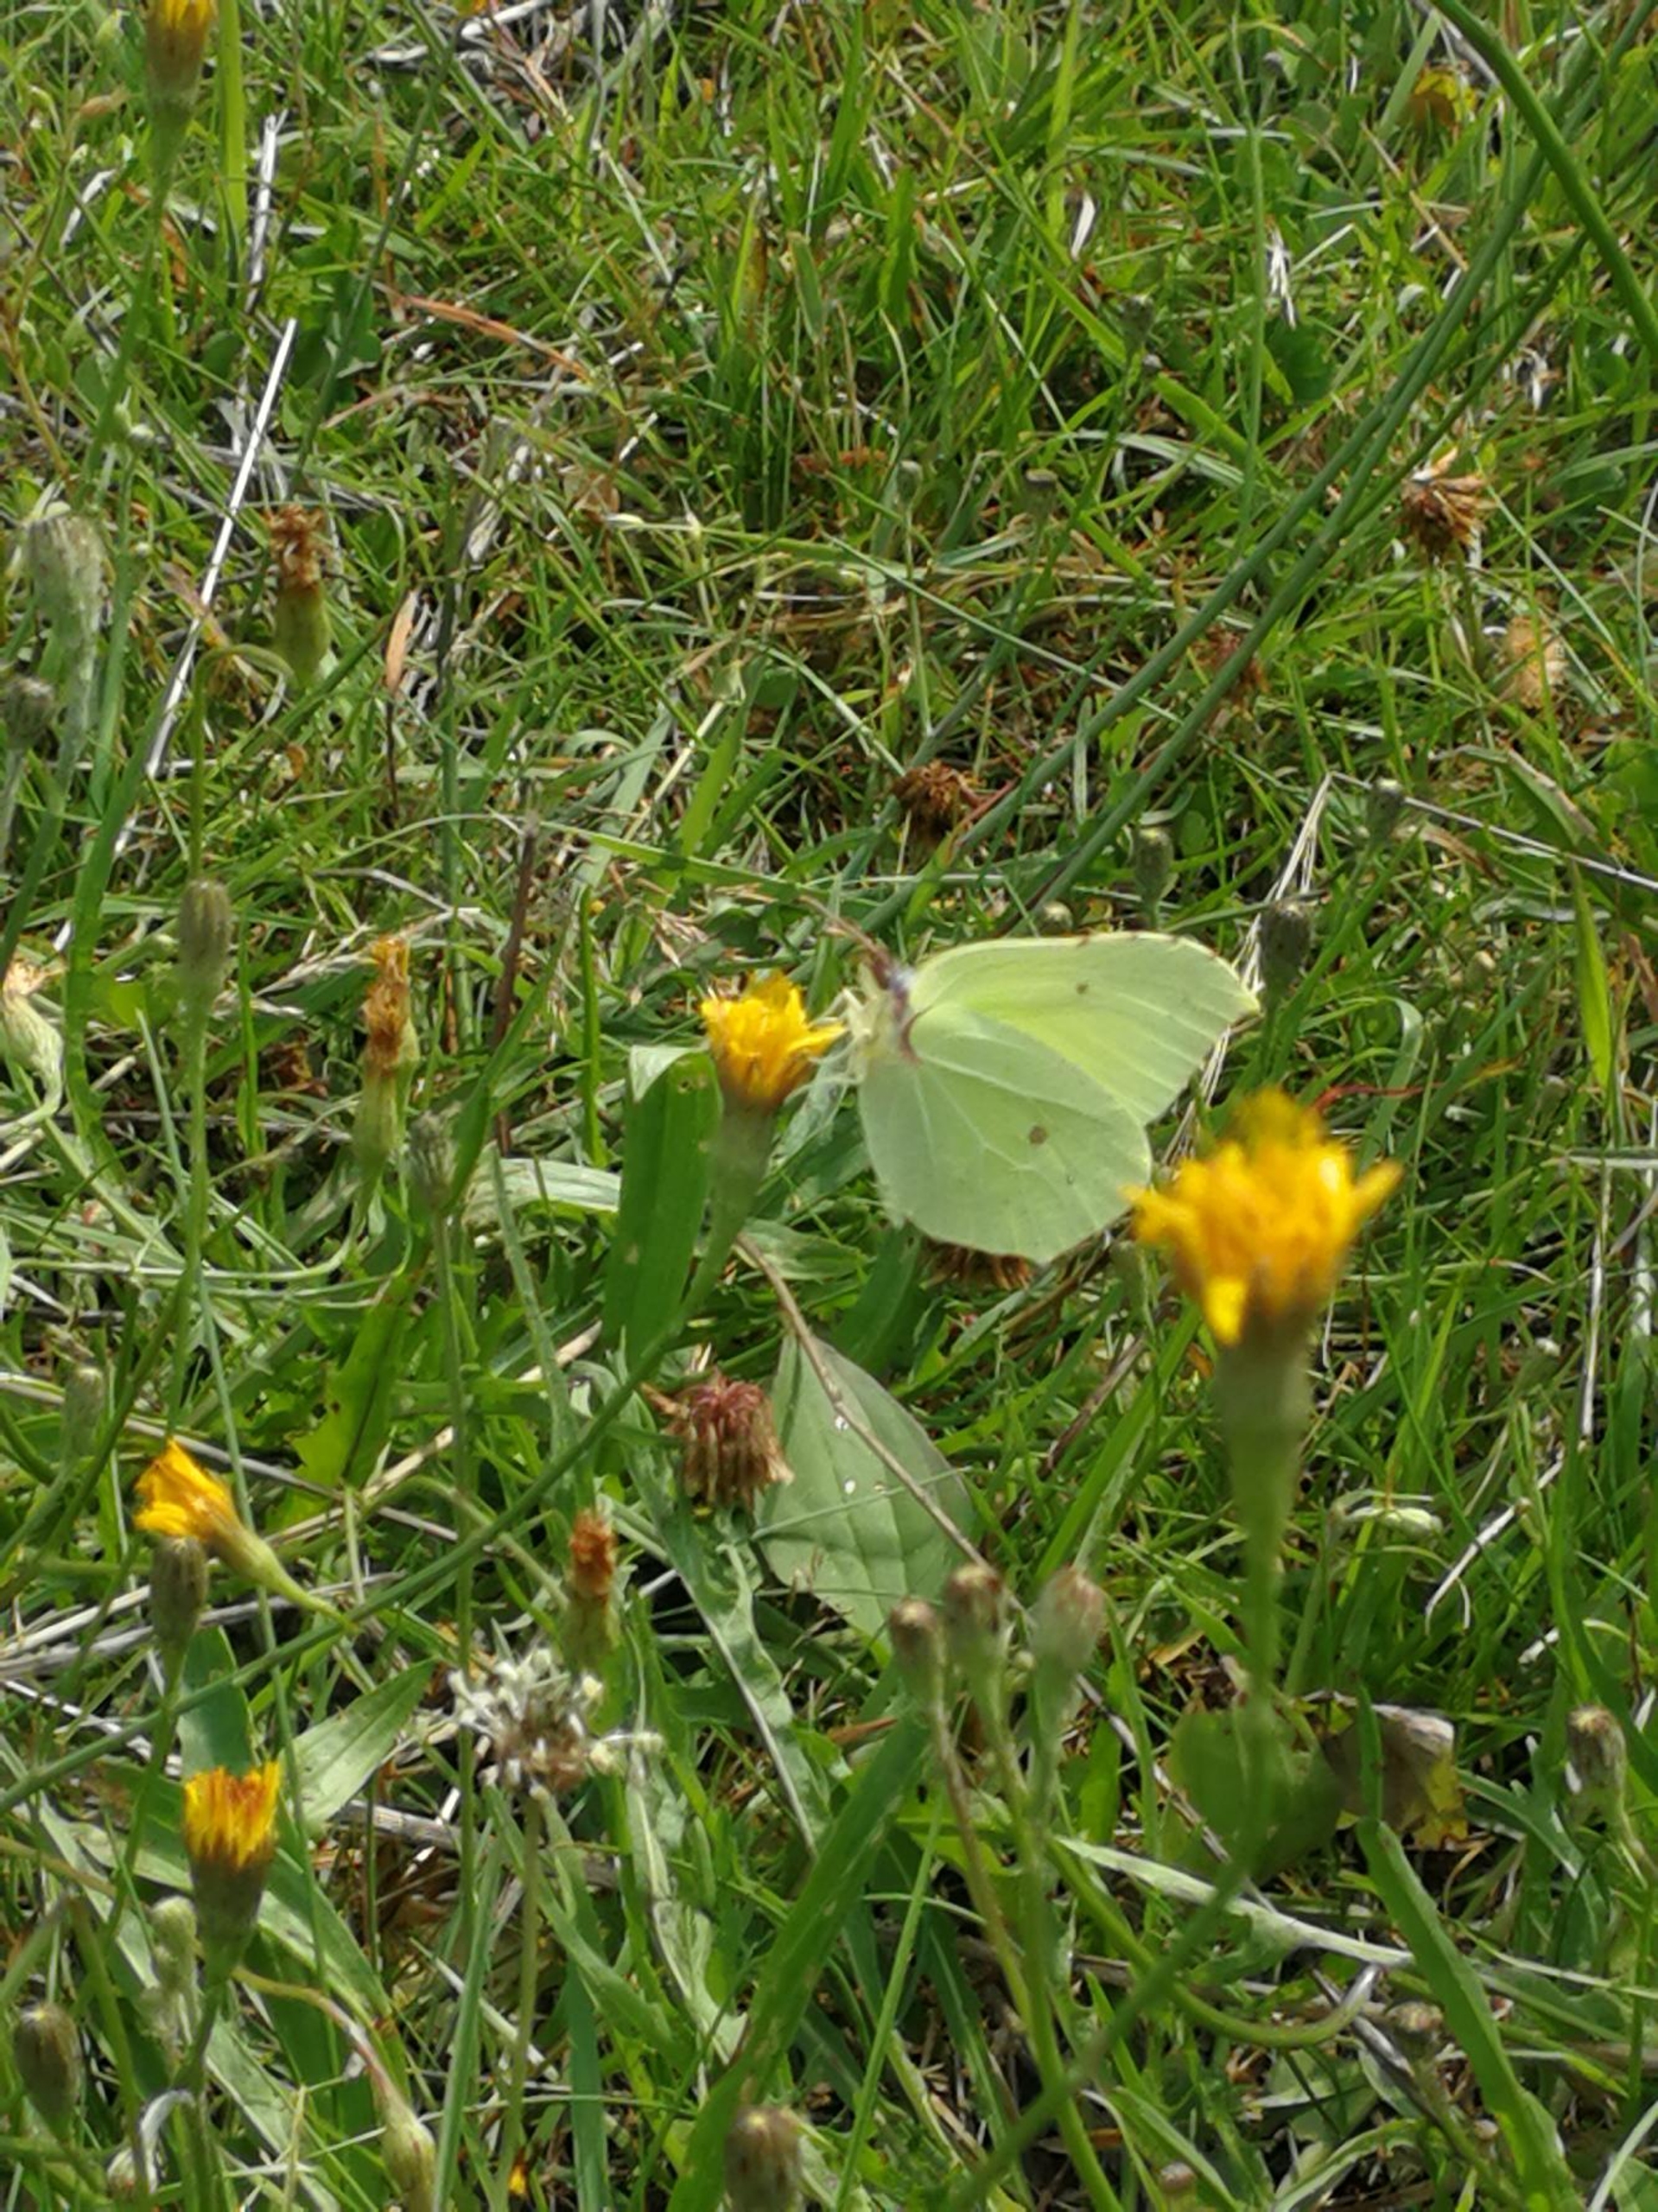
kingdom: Animalia
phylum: Arthropoda
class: Insecta
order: Lepidoptera
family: Pieridae
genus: Gonepteryx
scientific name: Gonepteryx rhamni
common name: Citronsommerfugl
